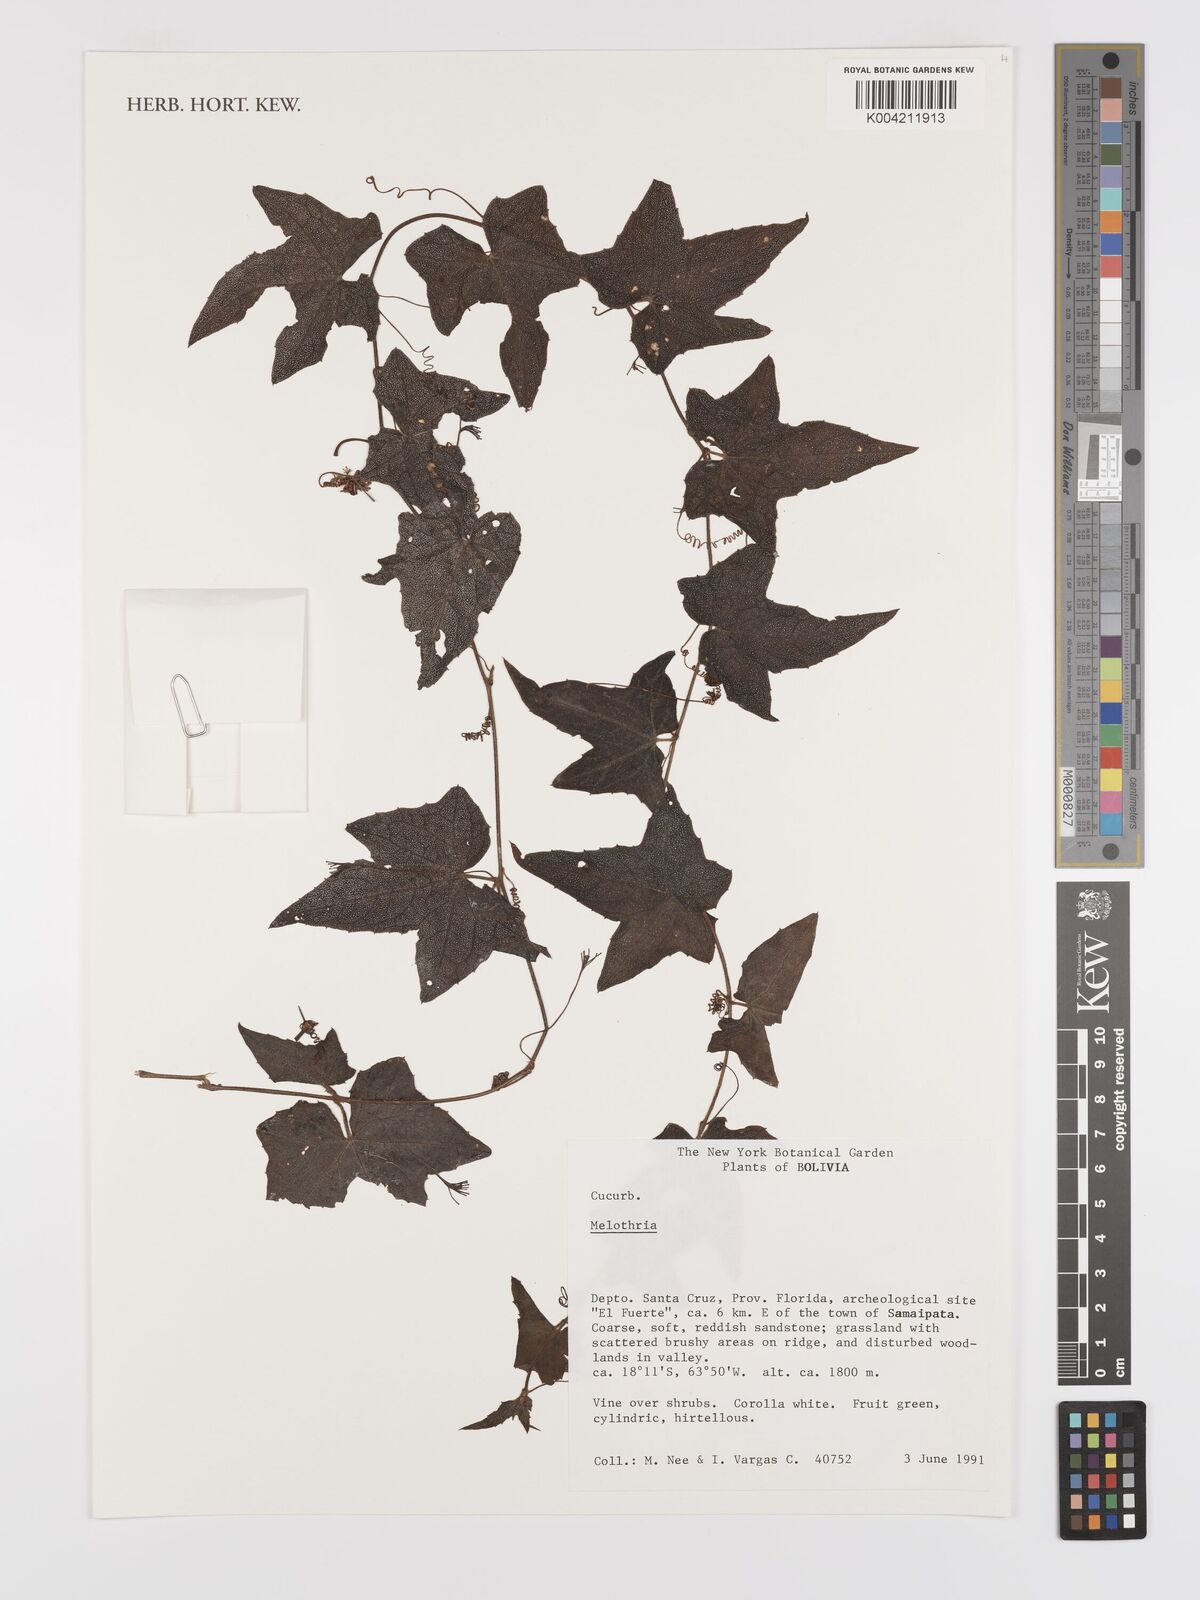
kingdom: Plantae
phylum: Tracheophyta
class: Magnoliopsida
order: Cucurbitales
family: Cucurbitaceae
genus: Melothria
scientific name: Melothria
